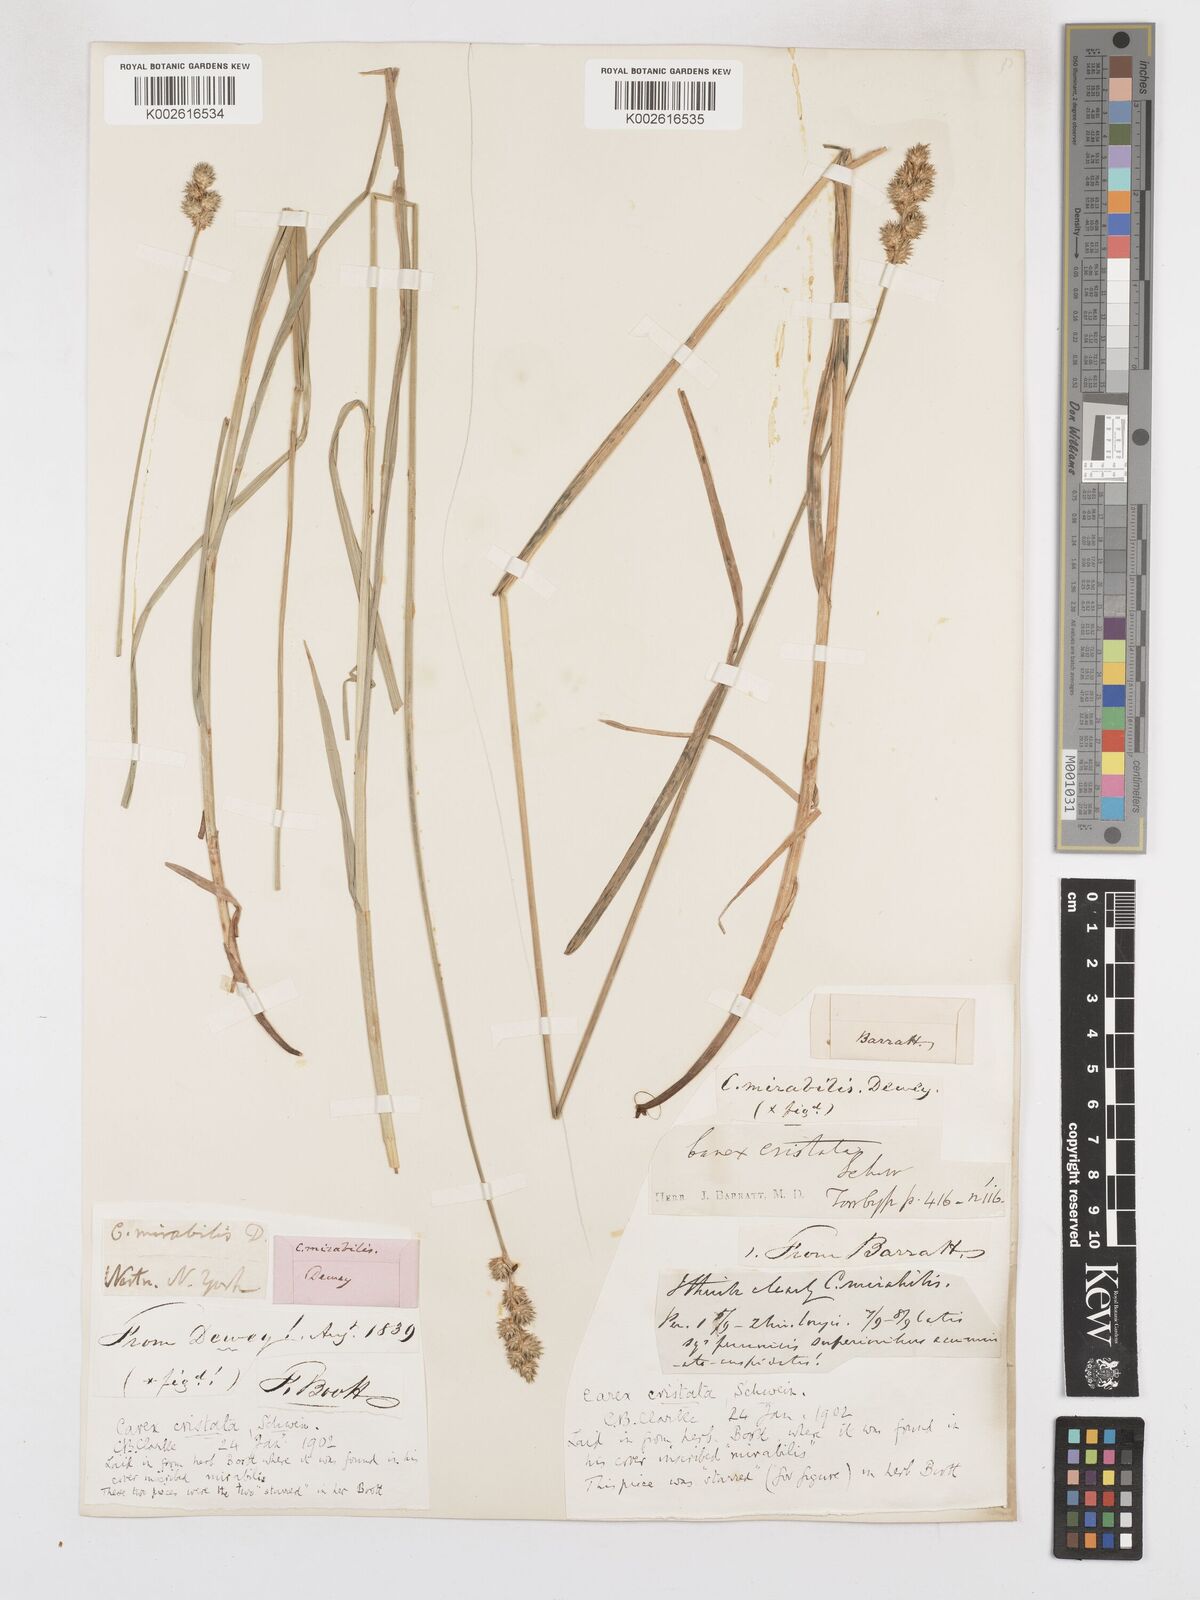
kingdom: Plantae
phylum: Tracheophyta
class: Liliopsida
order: Poales
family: Cyperaceae
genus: Carex
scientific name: Carex cristatella
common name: Crested oval sedge
